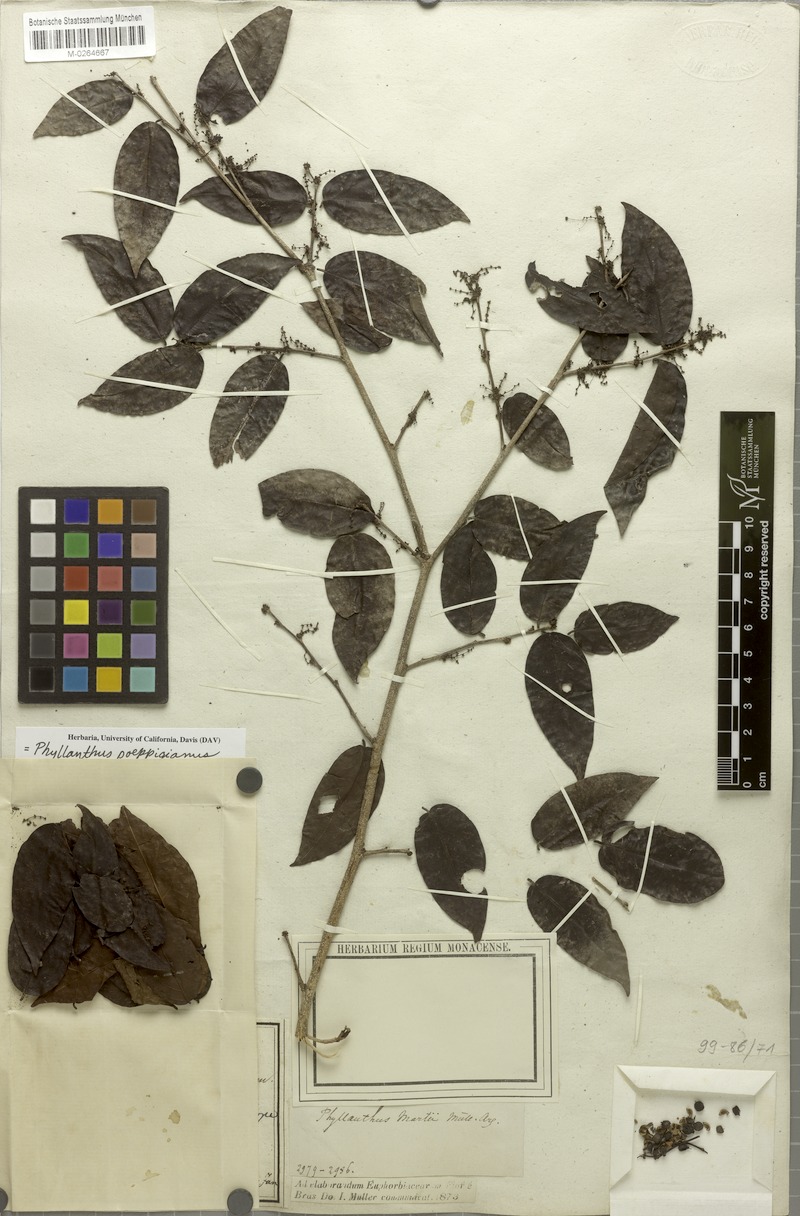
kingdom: Plantae
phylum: Tracheophyta
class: Magnoliopsida
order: Malpighiales
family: Phyllanthaceae
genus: Phyllanthus
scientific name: Phyllanthus poeppigianus
